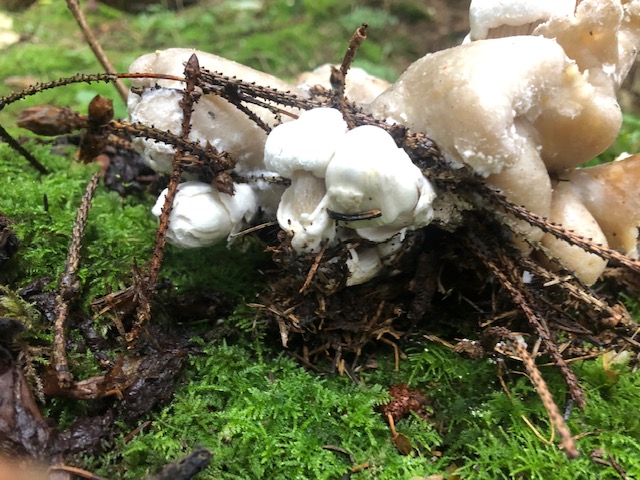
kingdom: Fungi
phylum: Basidiomycota
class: Agaricomycetes
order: Agaricales
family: Pluteaceae
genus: Volvariella
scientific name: Volvariella surrecta
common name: snyltende posesvamp
